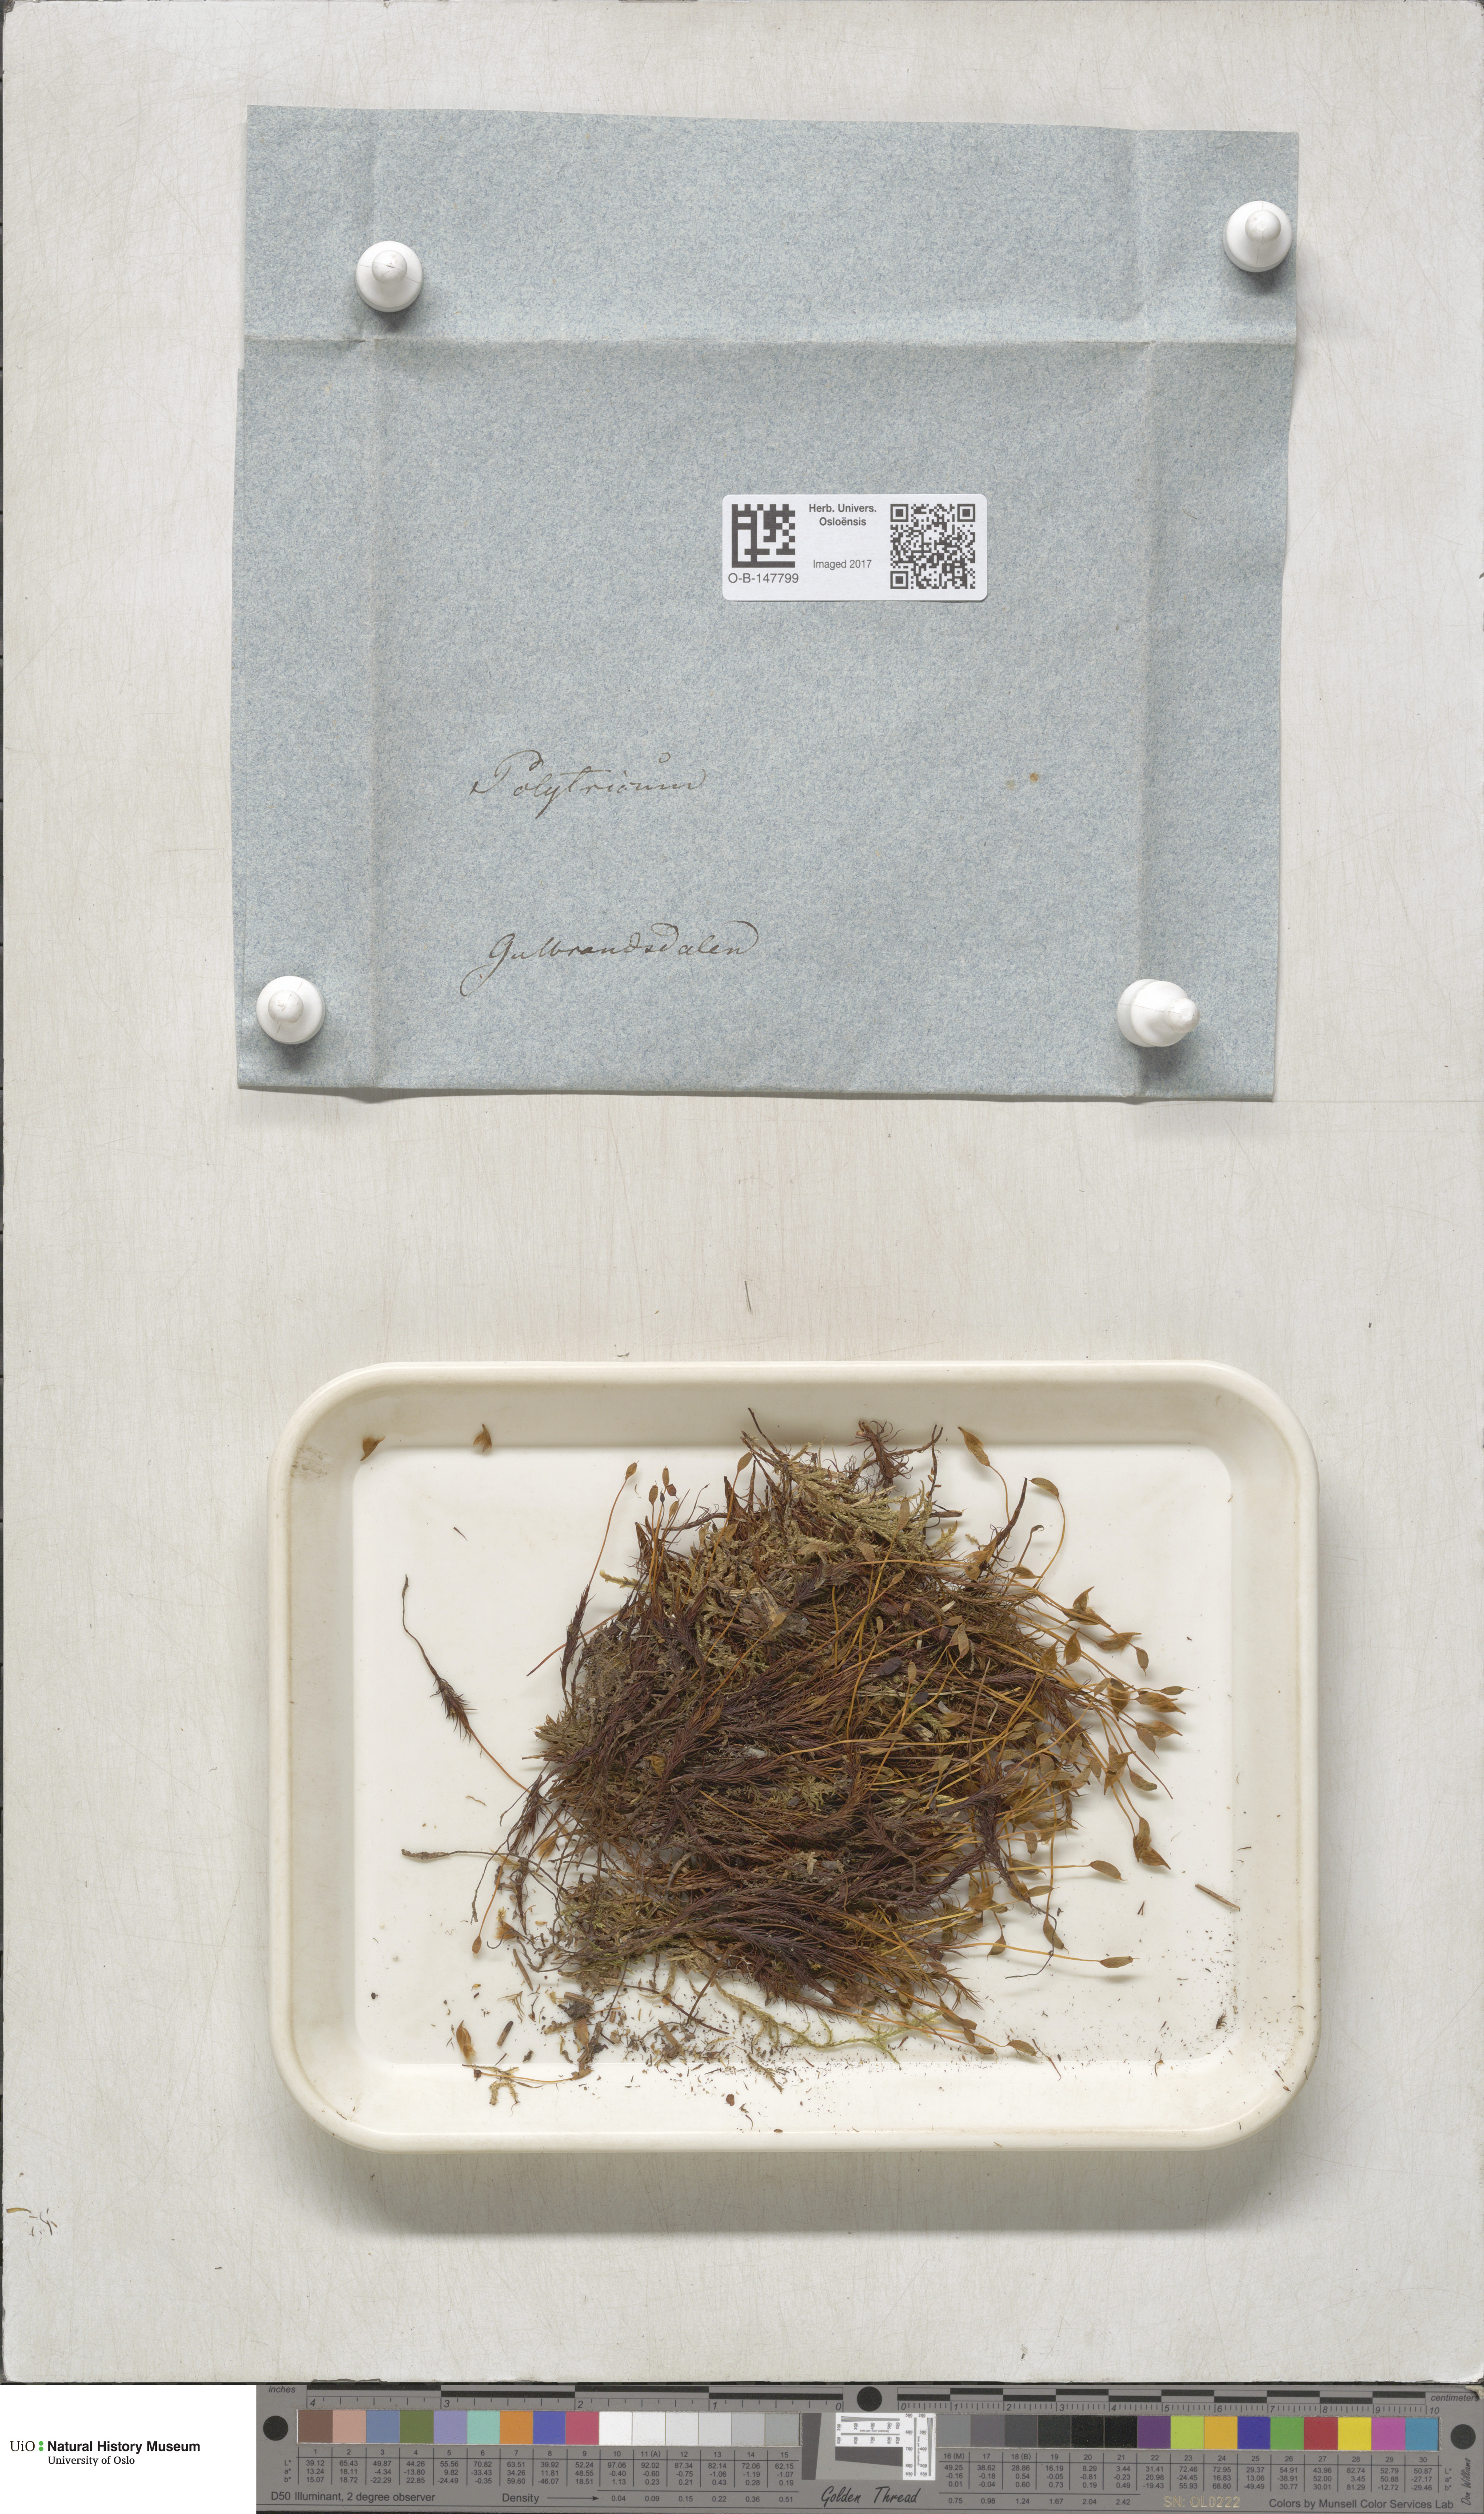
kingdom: Plantae
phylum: Bryophyta
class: Polytrichopsida
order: Polytrichales
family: Polytrichaceae
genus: Polytrichastrum
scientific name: Polytrichastrum alpinum
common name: Alpine haircap
